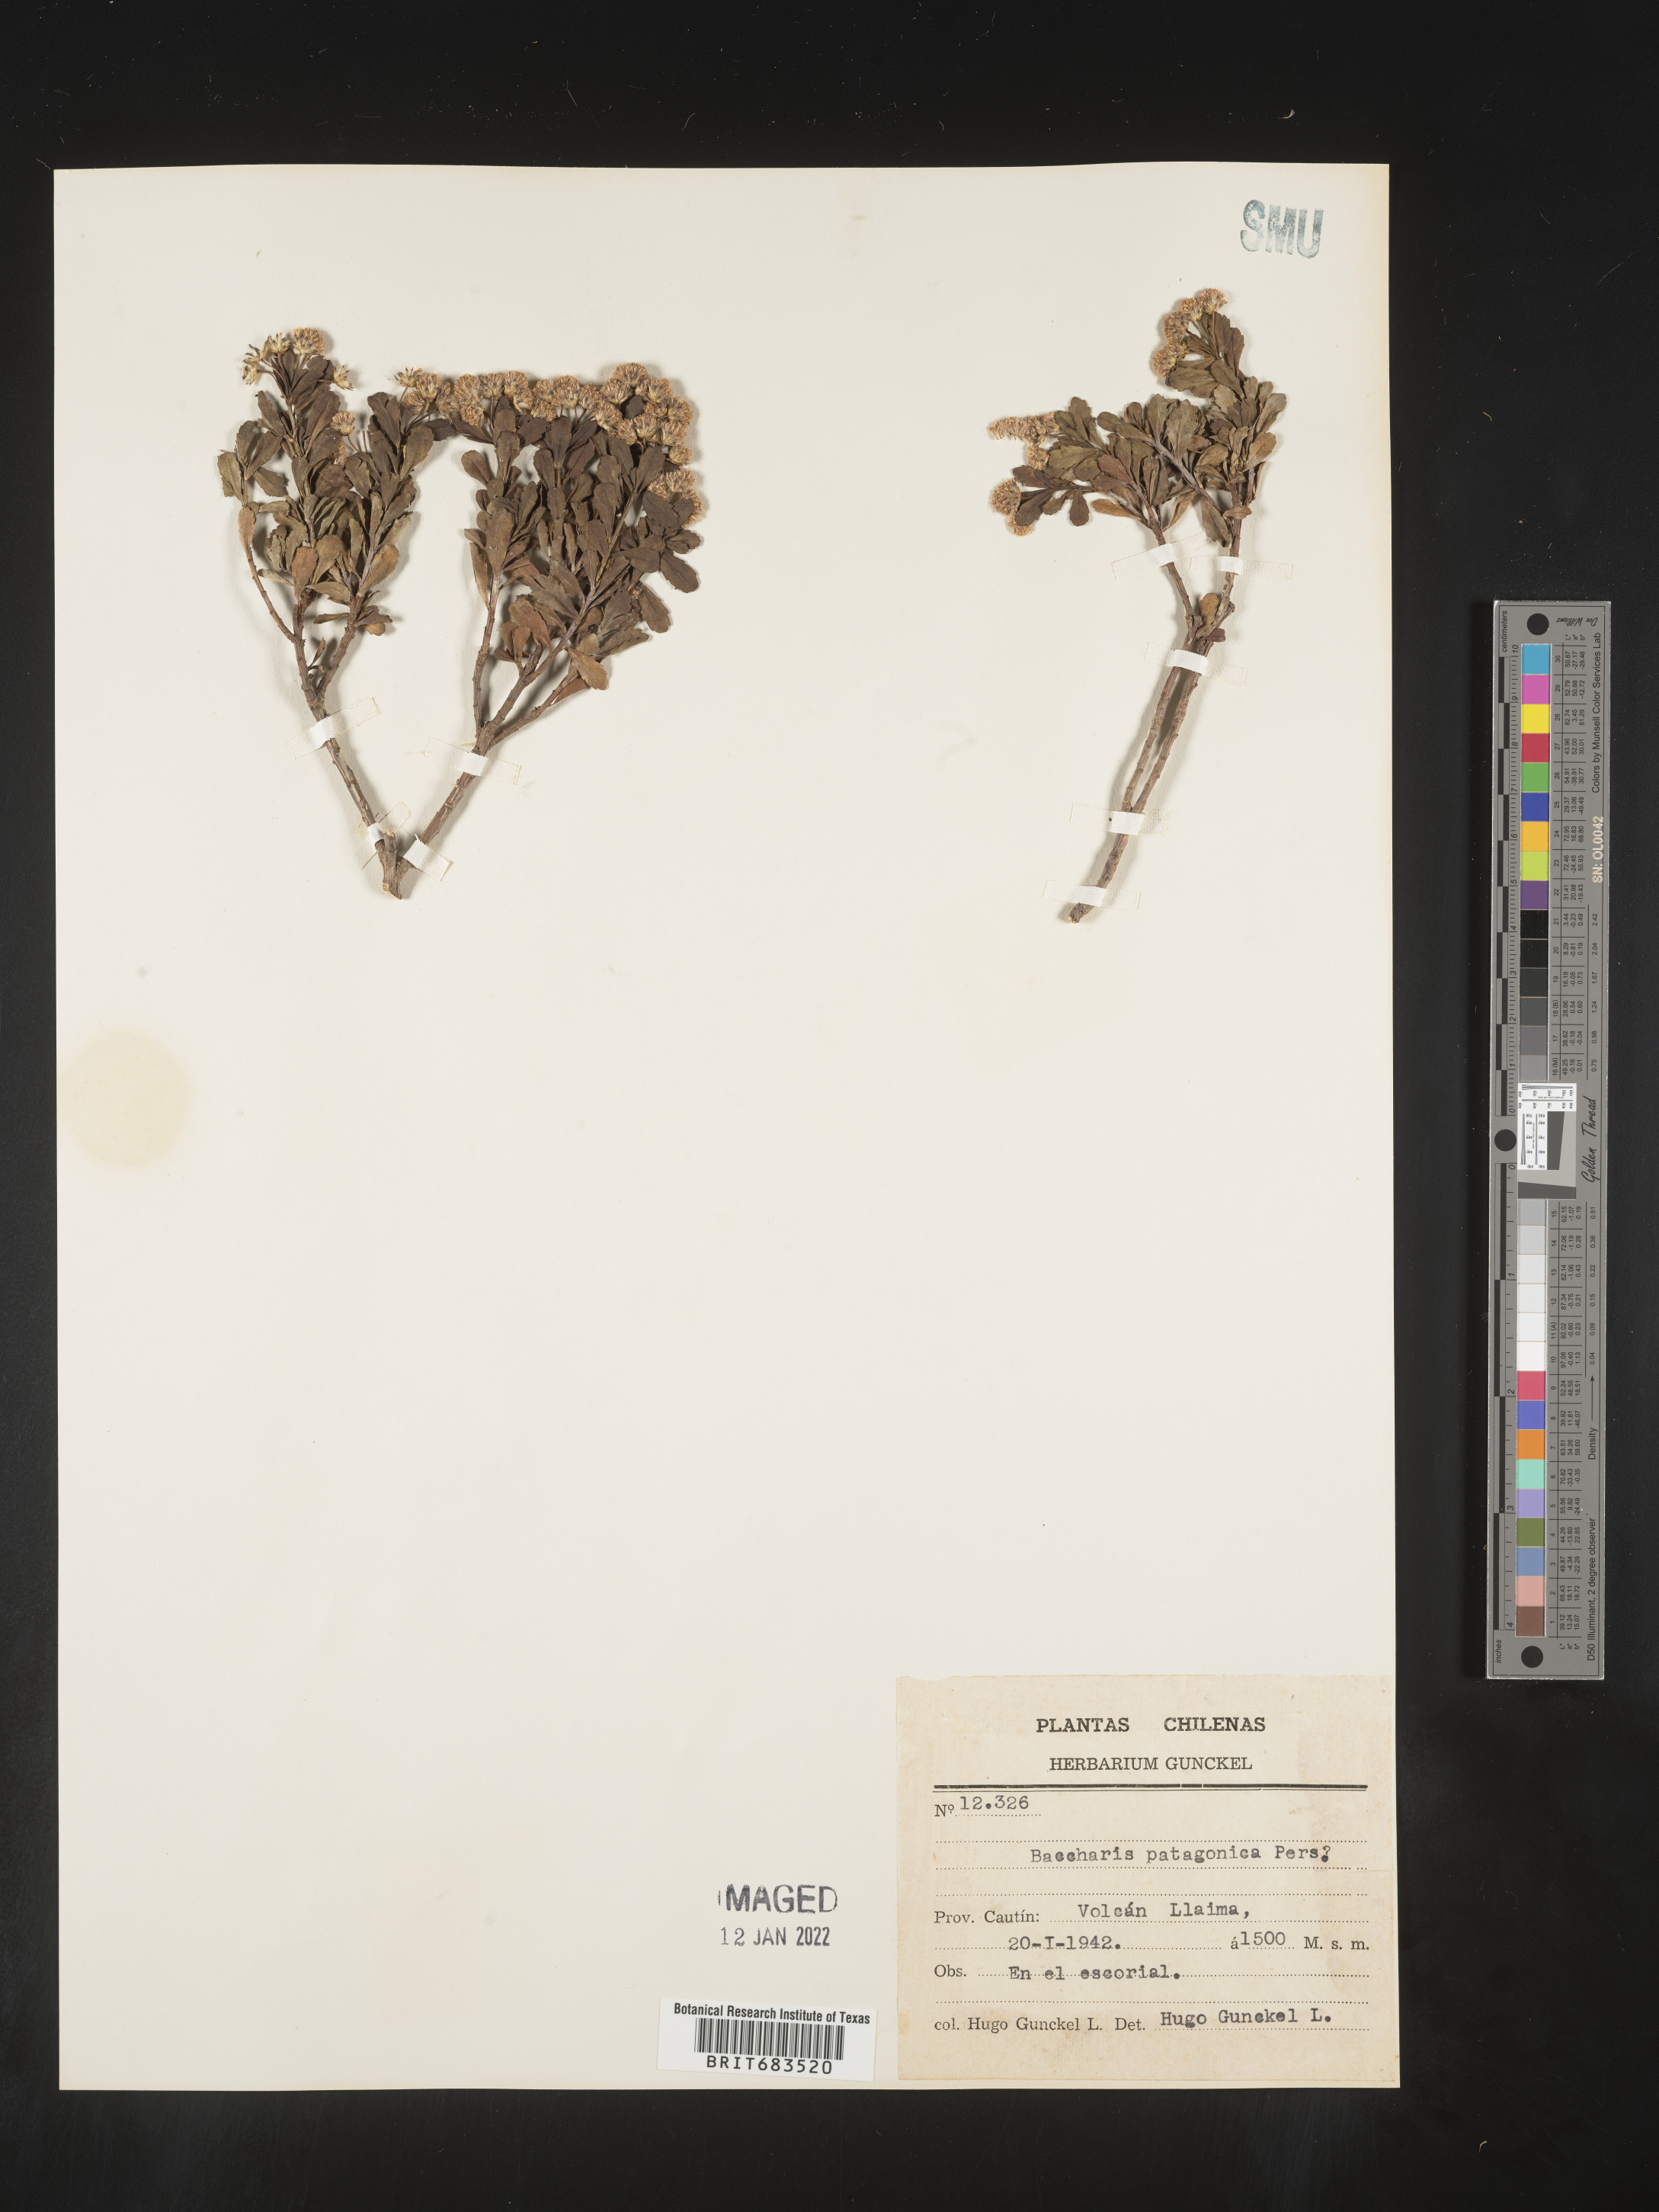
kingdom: Plantae
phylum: Tracheophyta
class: Magnoliopsida
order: Asterales
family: Asteraceae
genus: Baccharis
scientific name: Baccharis
